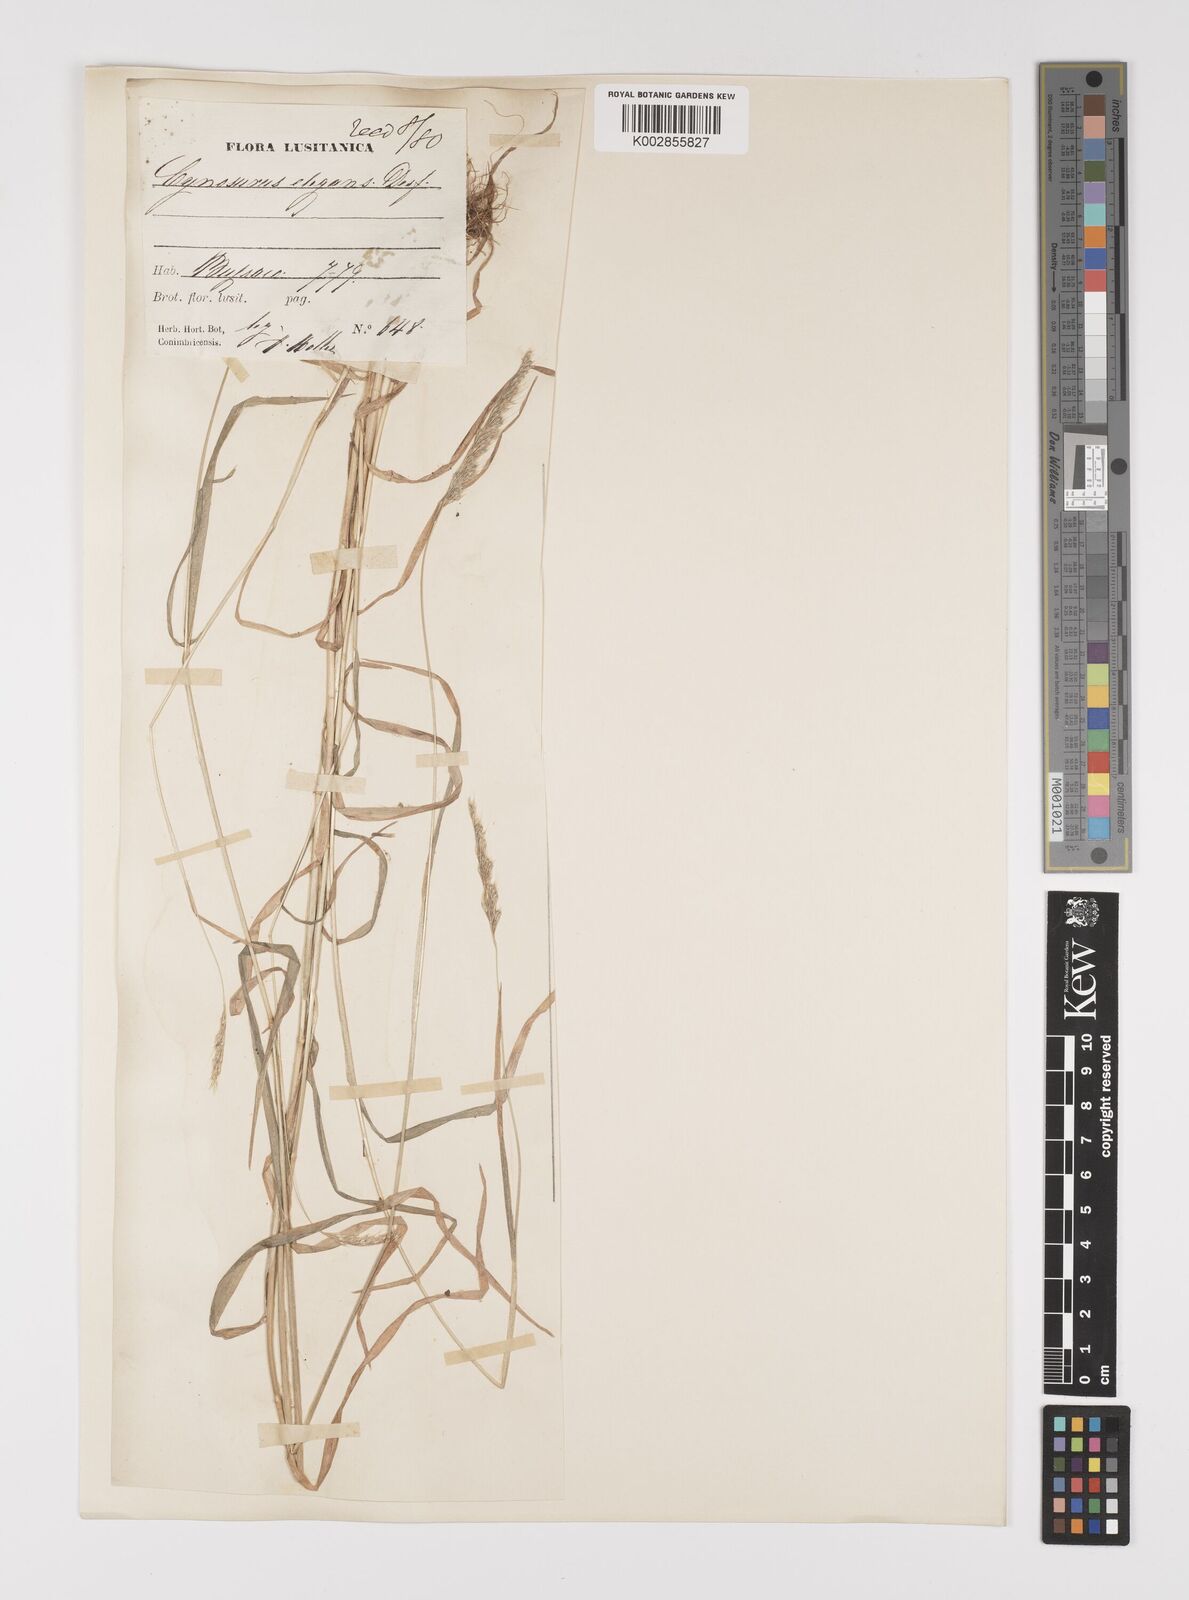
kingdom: Plantae
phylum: Tracheophyta
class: Liliopsida
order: Poales
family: Poaceae
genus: Cynosurus
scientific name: Cynosurus elegans
